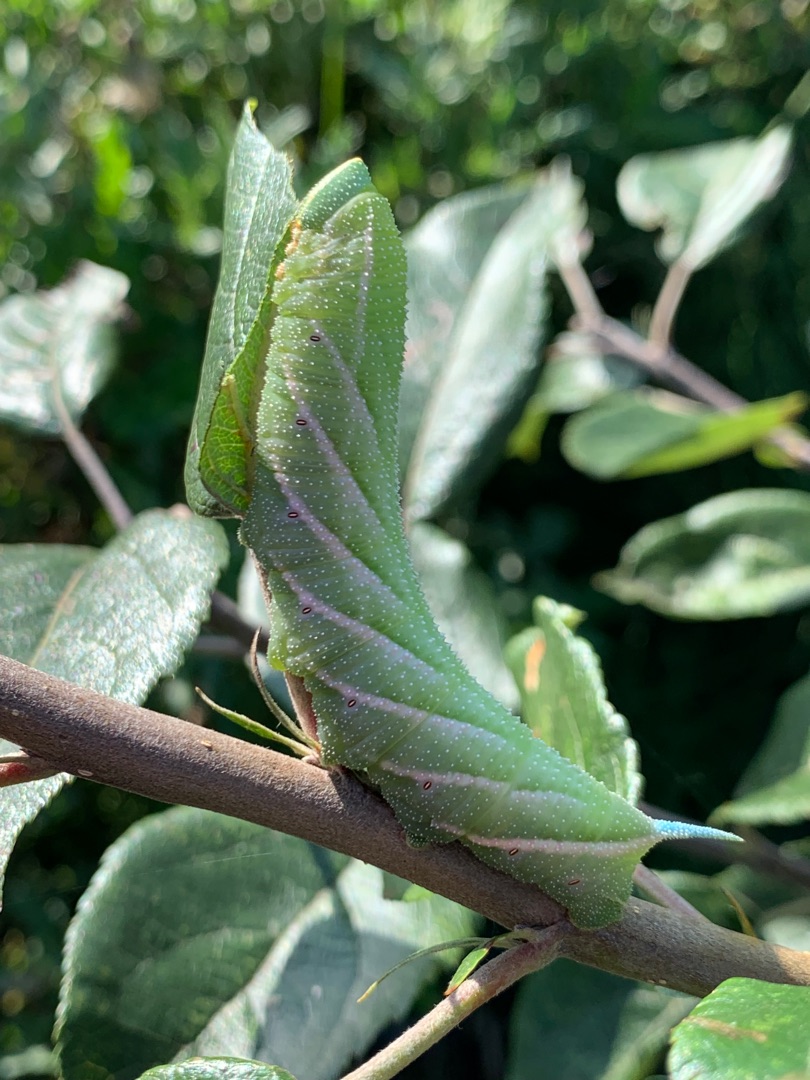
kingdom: Animalia
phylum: Arthropoda
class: Insecta
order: Lepidoptera
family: Sphingidae
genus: Smerinthus
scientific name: Smerinthus ocellata
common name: Aftenpåfugleøje
